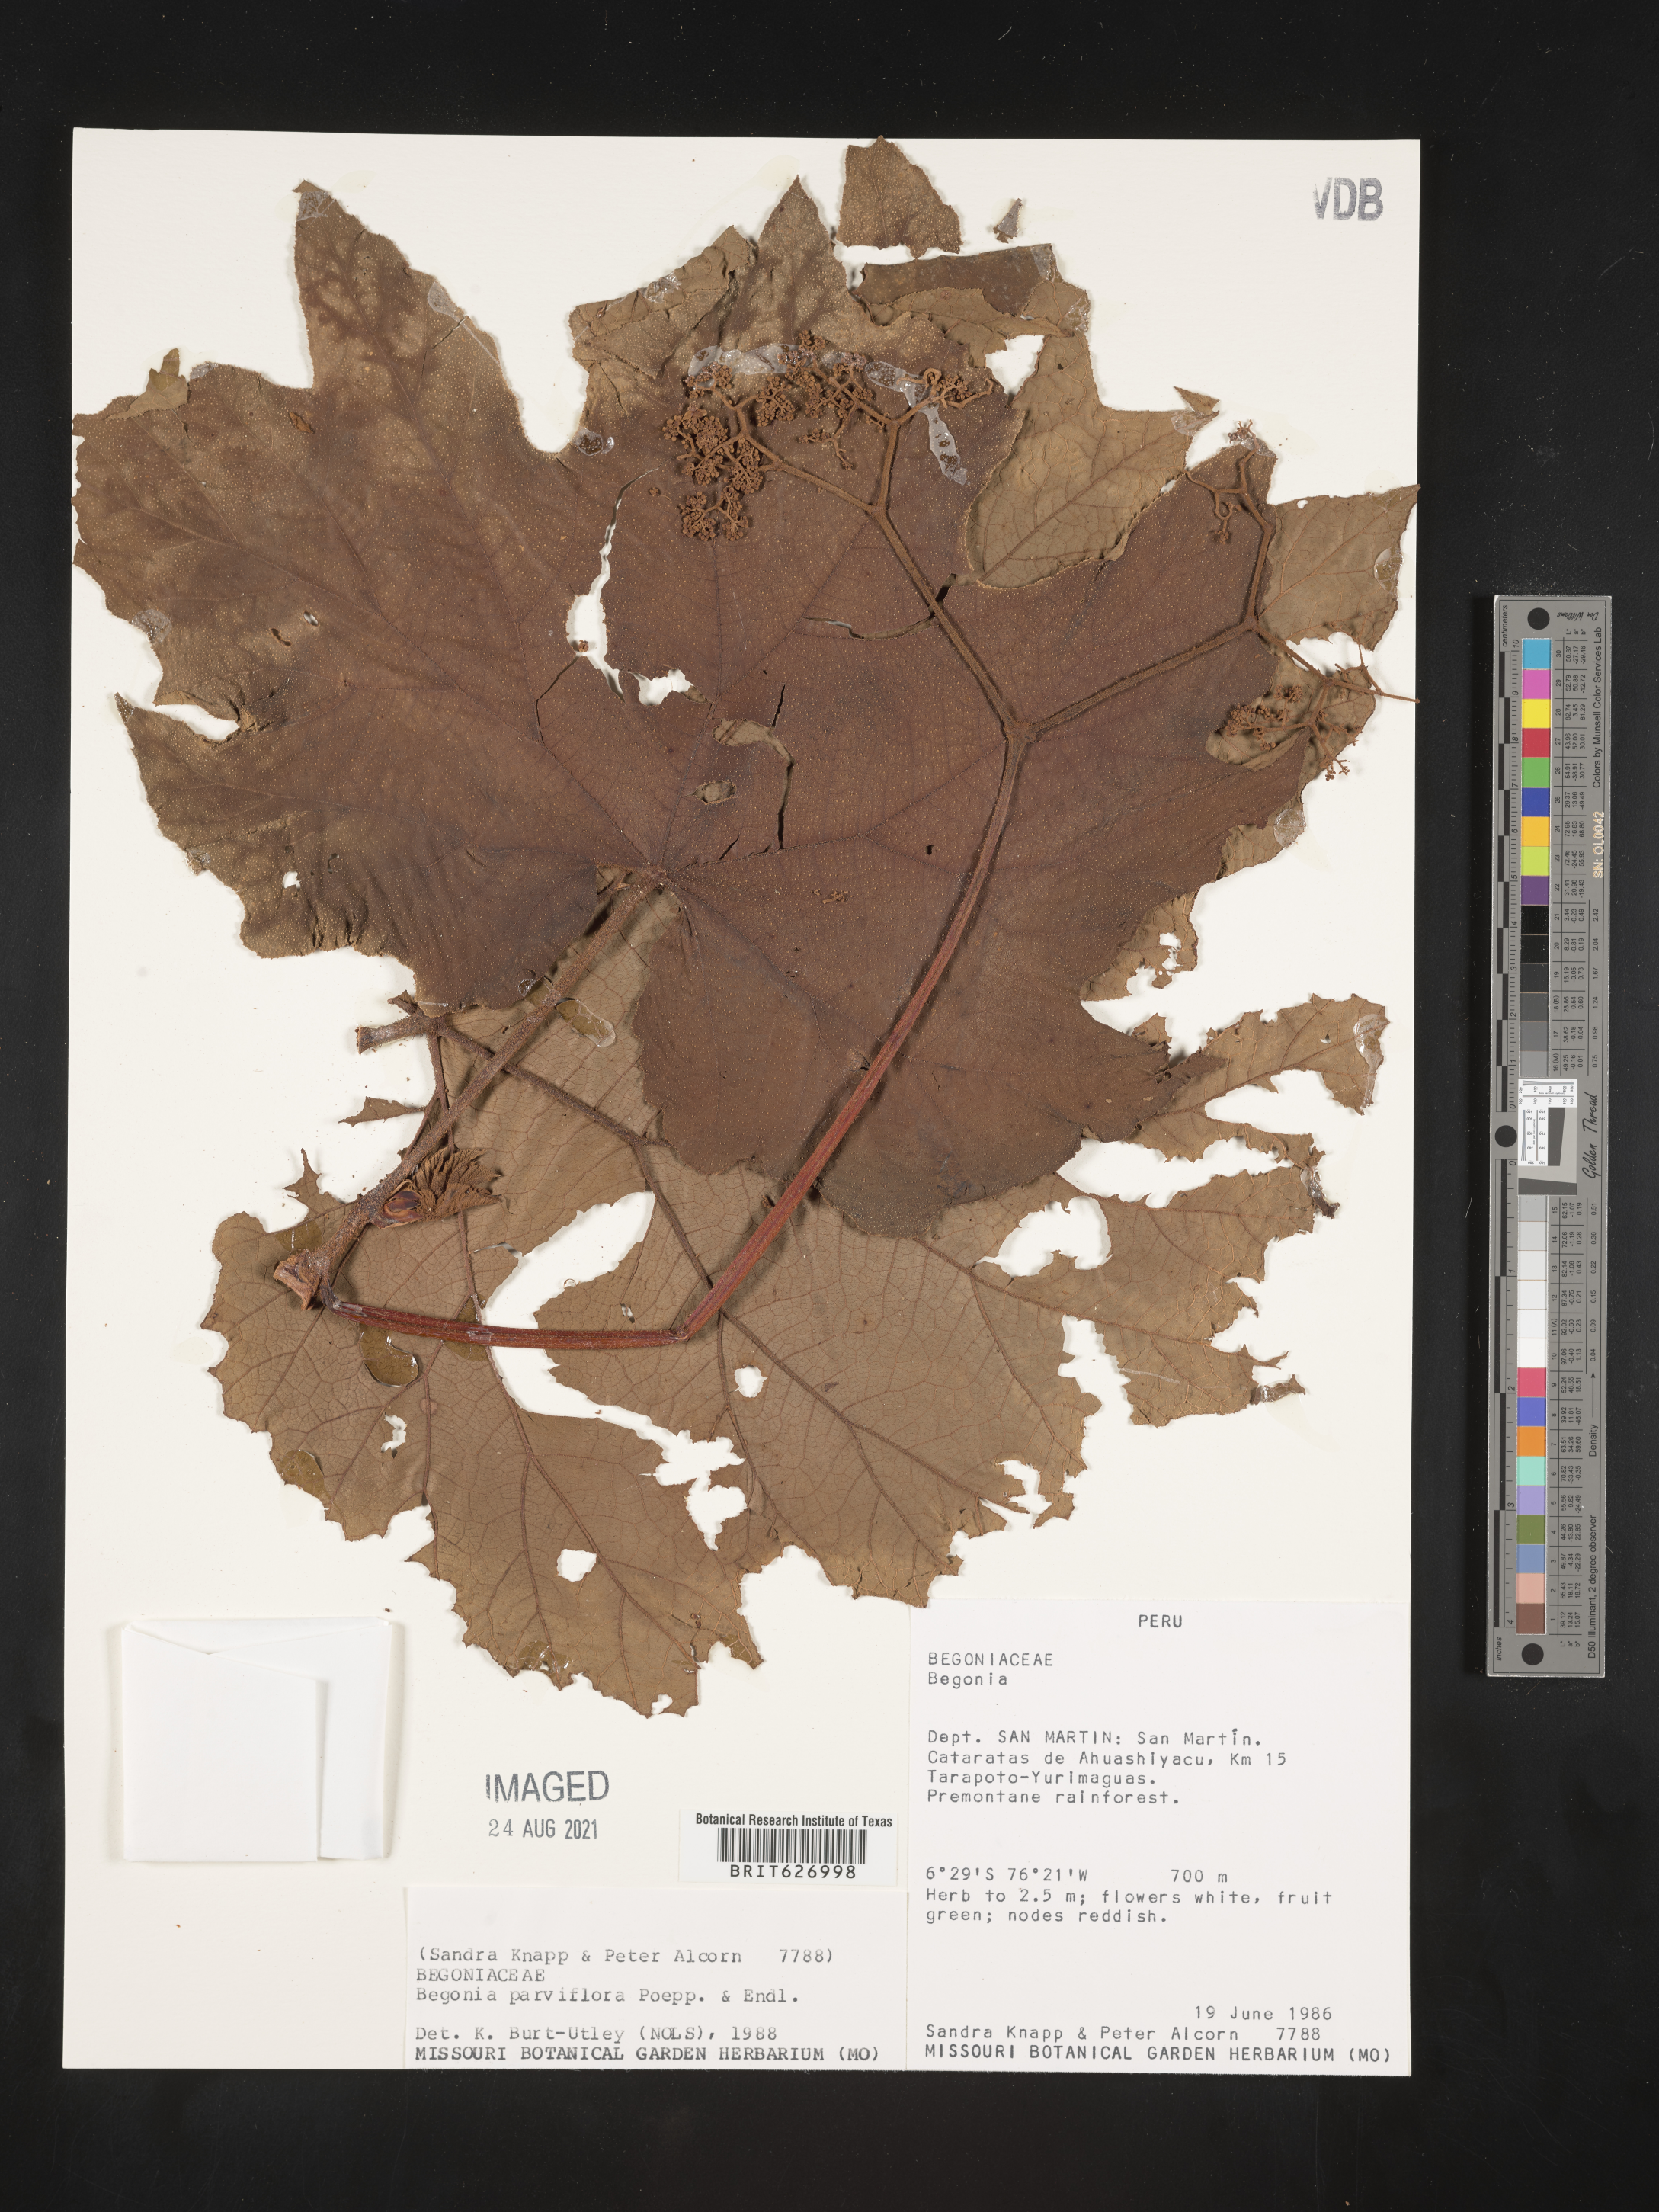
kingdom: Plantae
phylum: Tracheophyta
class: Magnoliopsida
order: Cucurbitales
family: Begoniaceae
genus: Begonia
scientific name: Begonia parviflora
